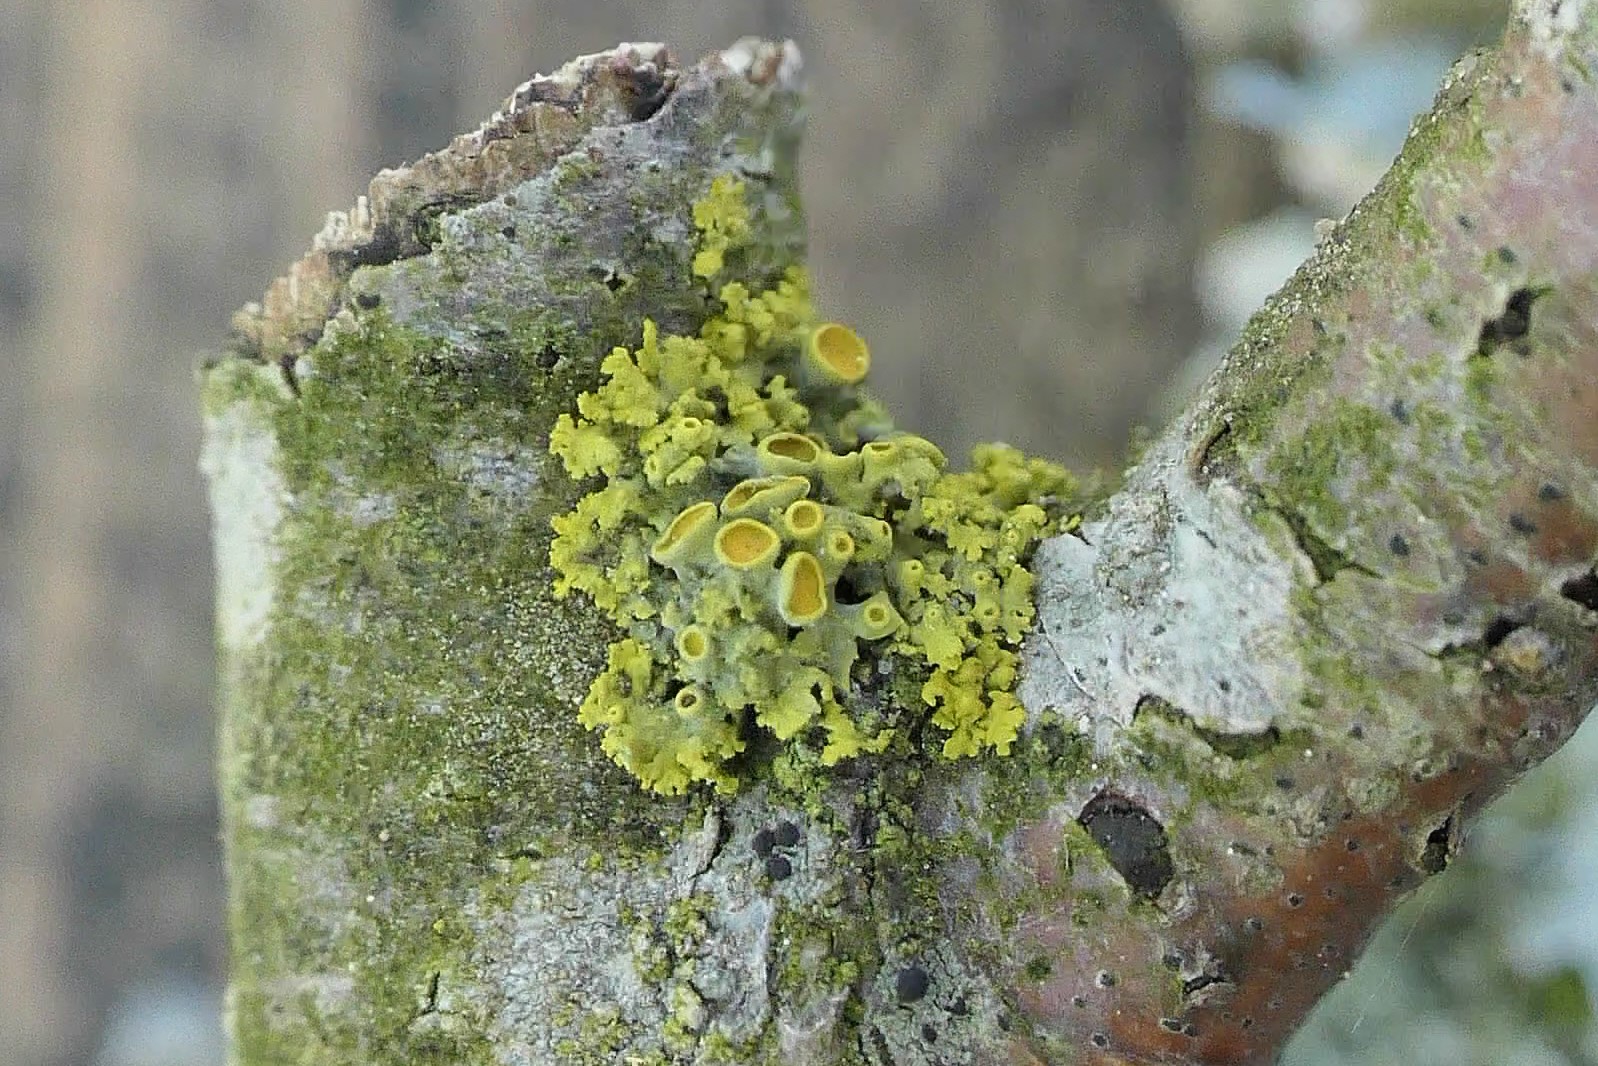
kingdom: Fungi
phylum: Ascomycota
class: Lecanoromycetes
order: Teloschistales
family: Teloschistaceae
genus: Polycauliona
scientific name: Polycauliona polycarpa
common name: mangefrugtet orangelav
